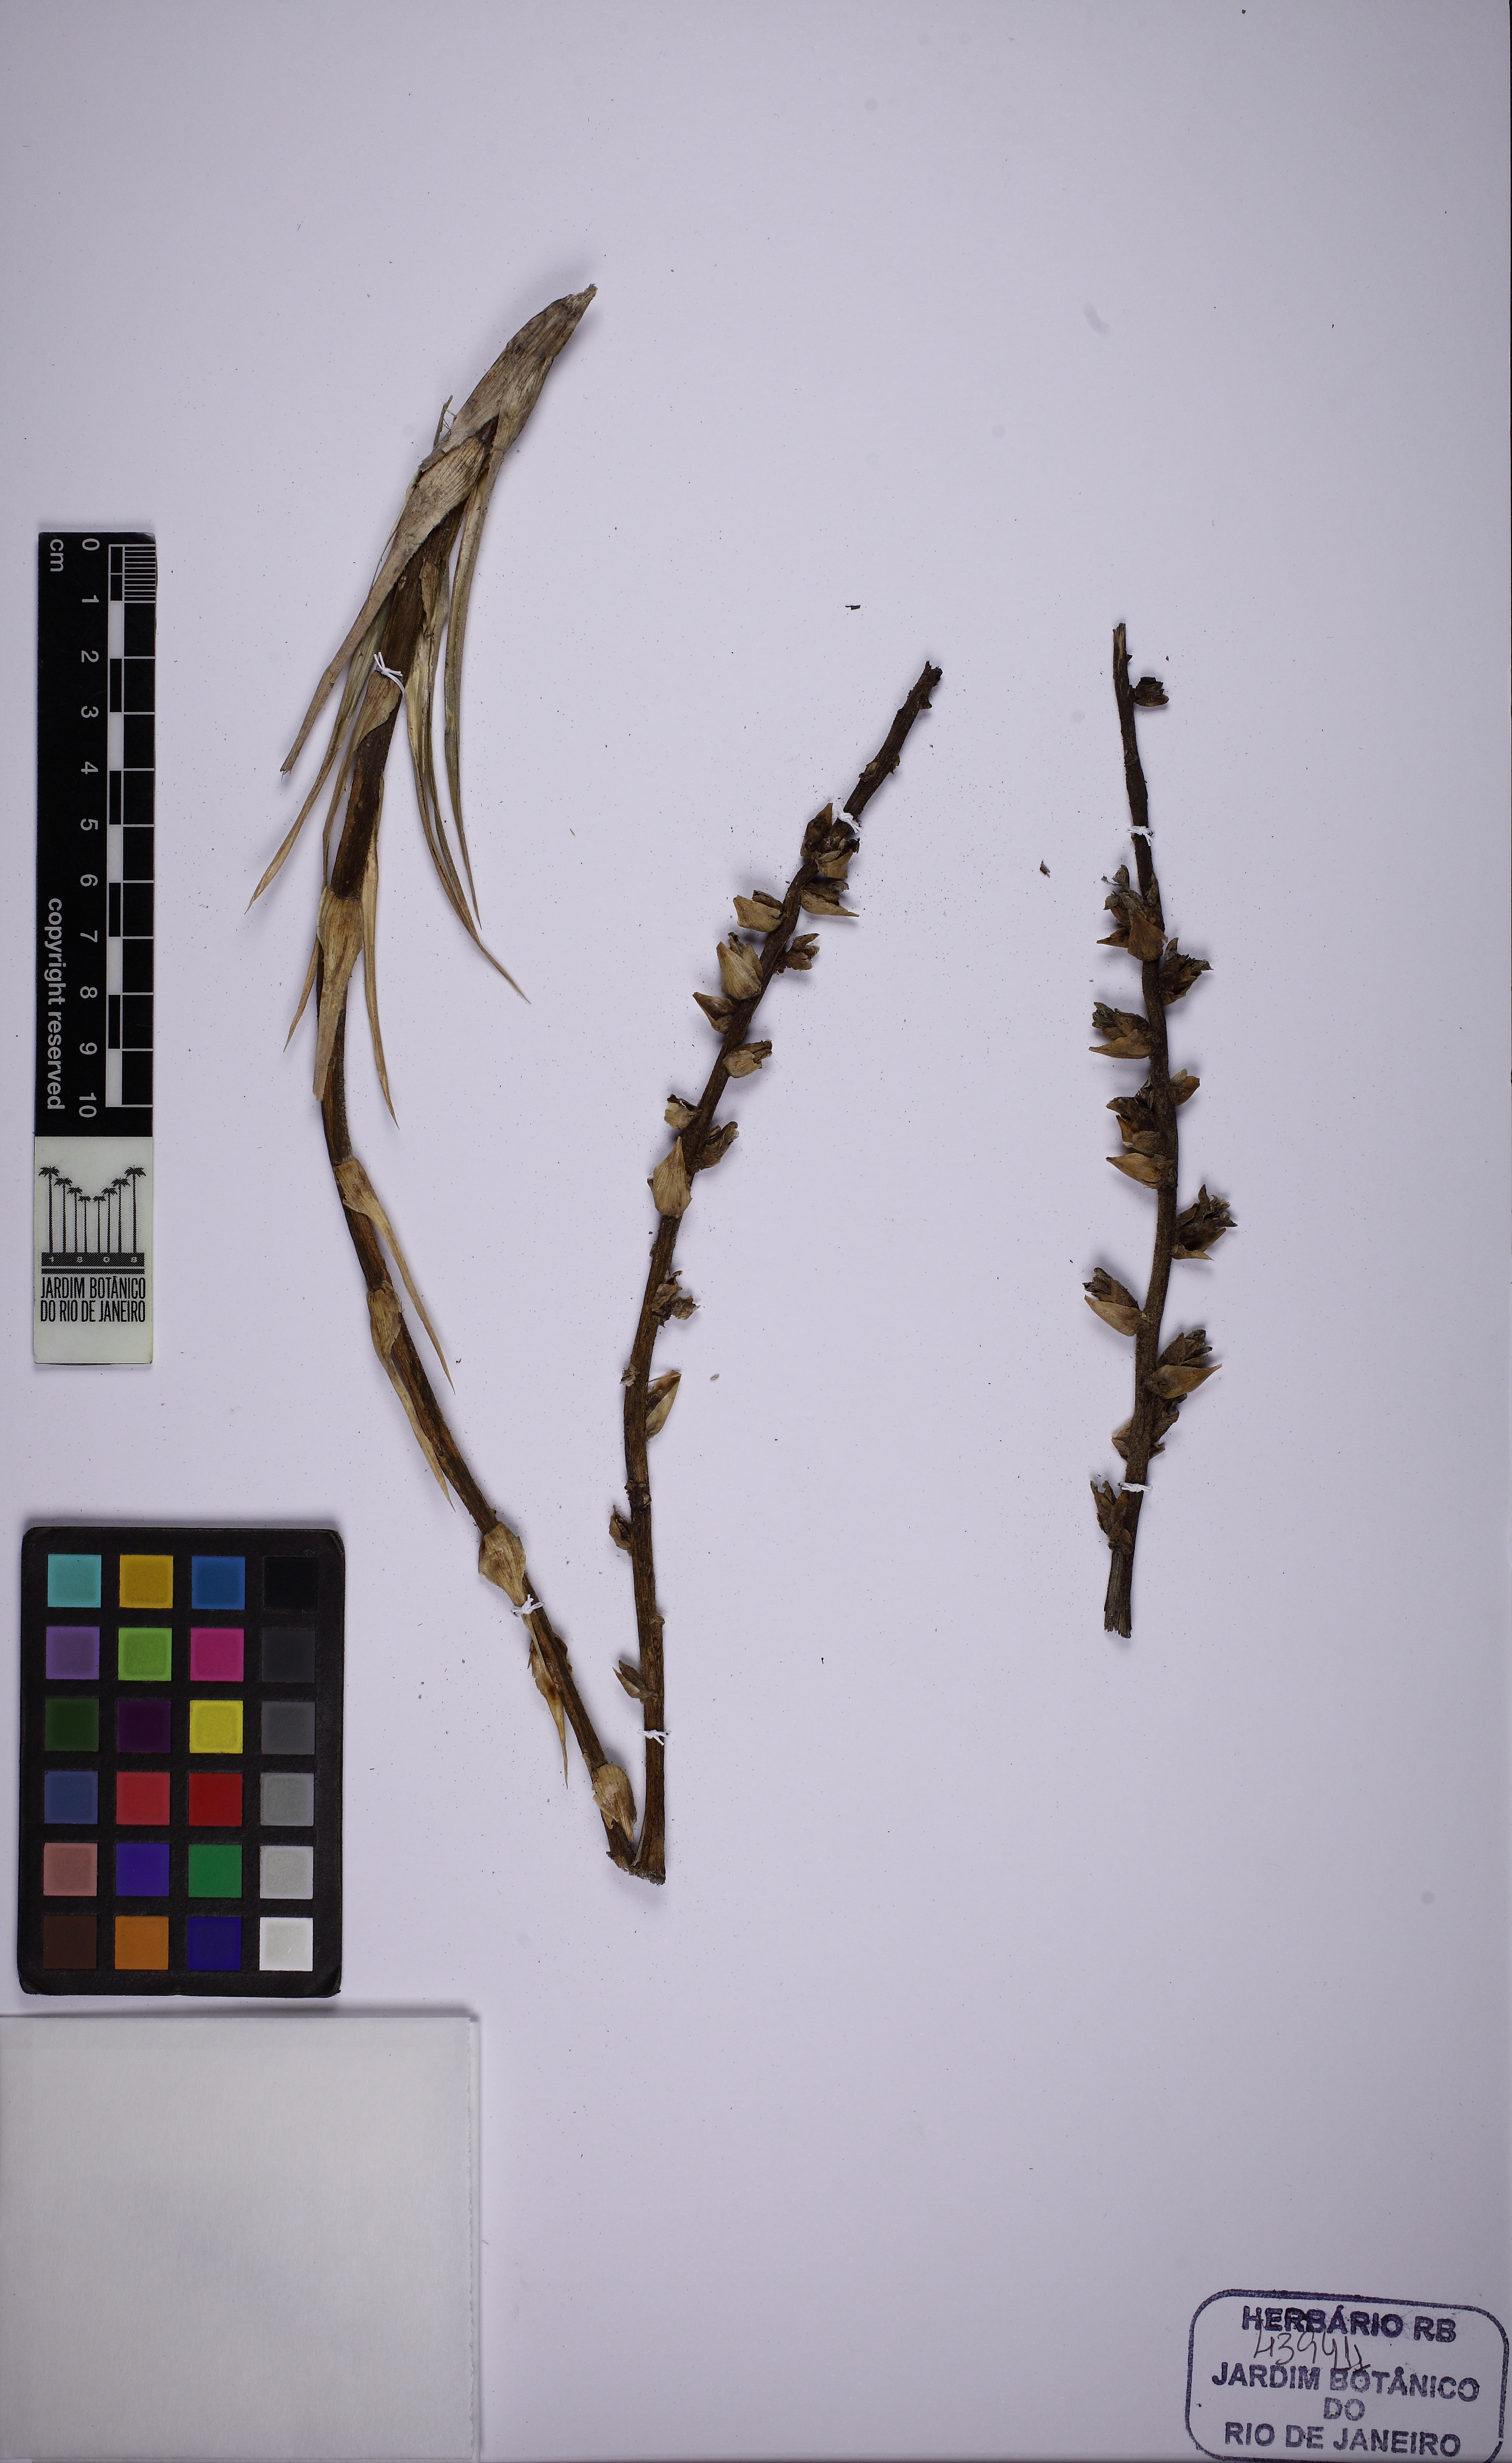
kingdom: Plantae
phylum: Tracheophyta
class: Liliopsida
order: Poales
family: Bromeliaceae
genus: Dyckia
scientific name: Dyckia
